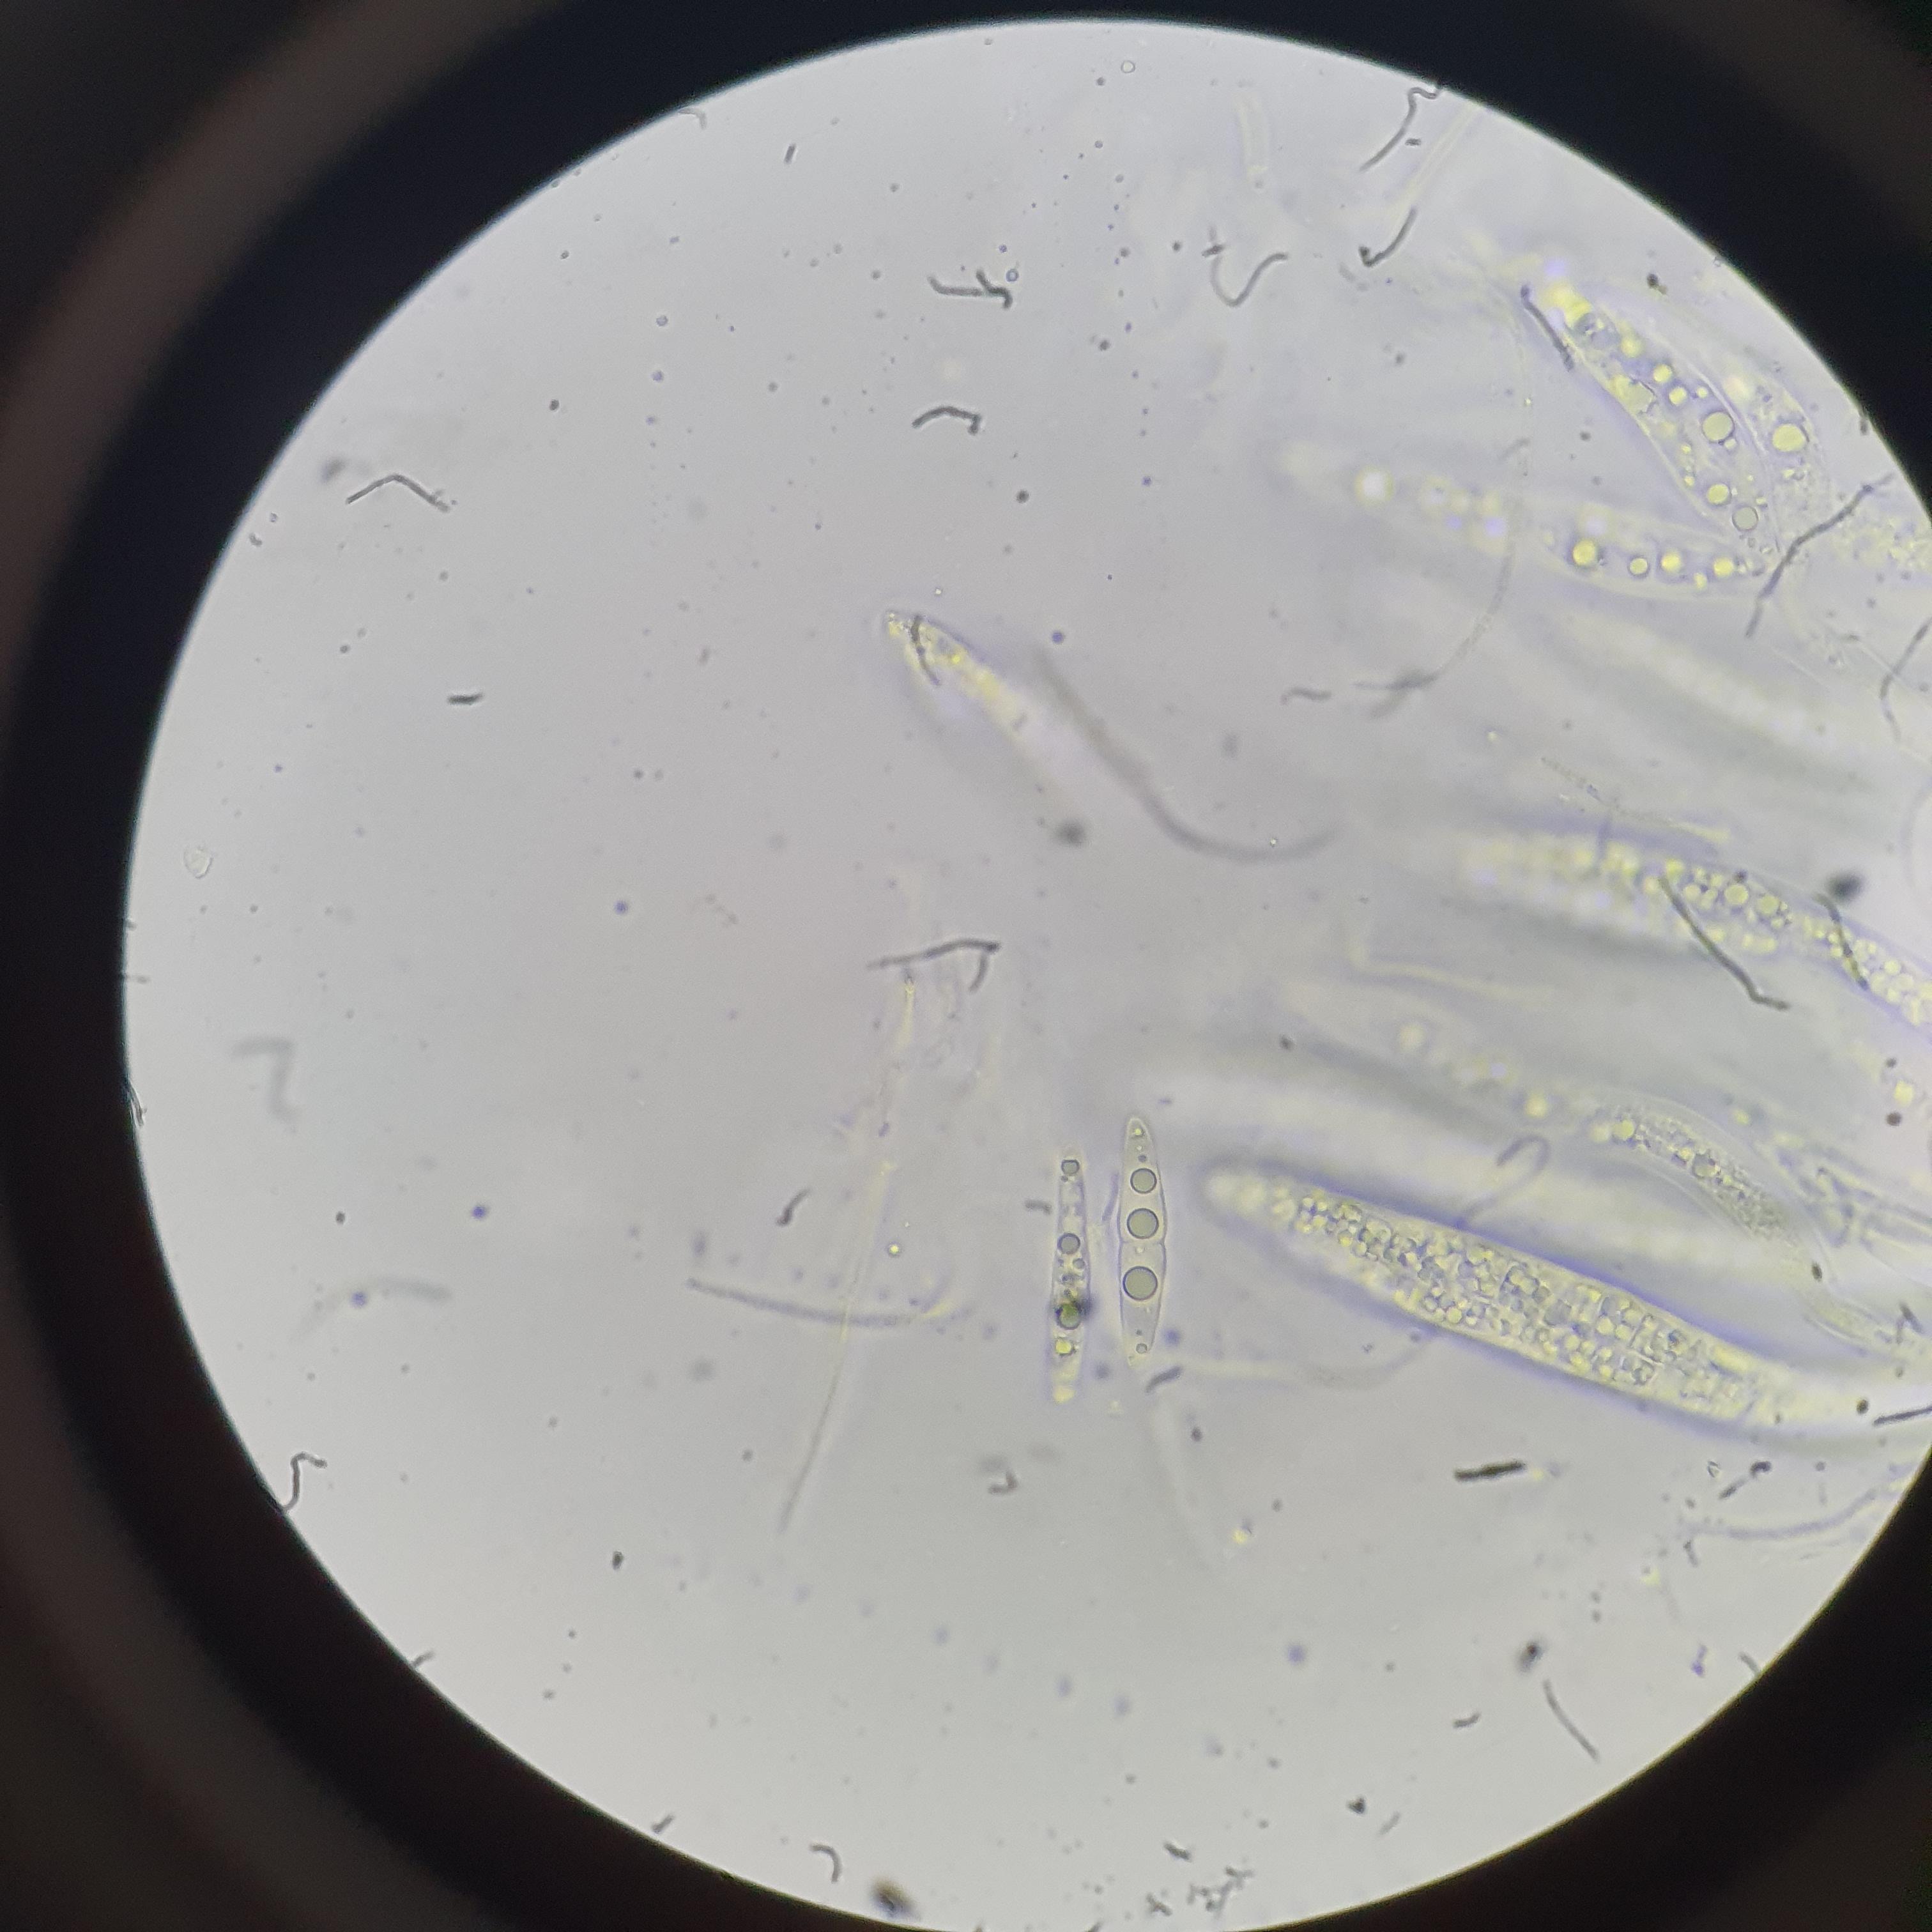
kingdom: Fungi
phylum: Ascomycota
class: Dothideomycetes
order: Dothideales
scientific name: Dothideales
